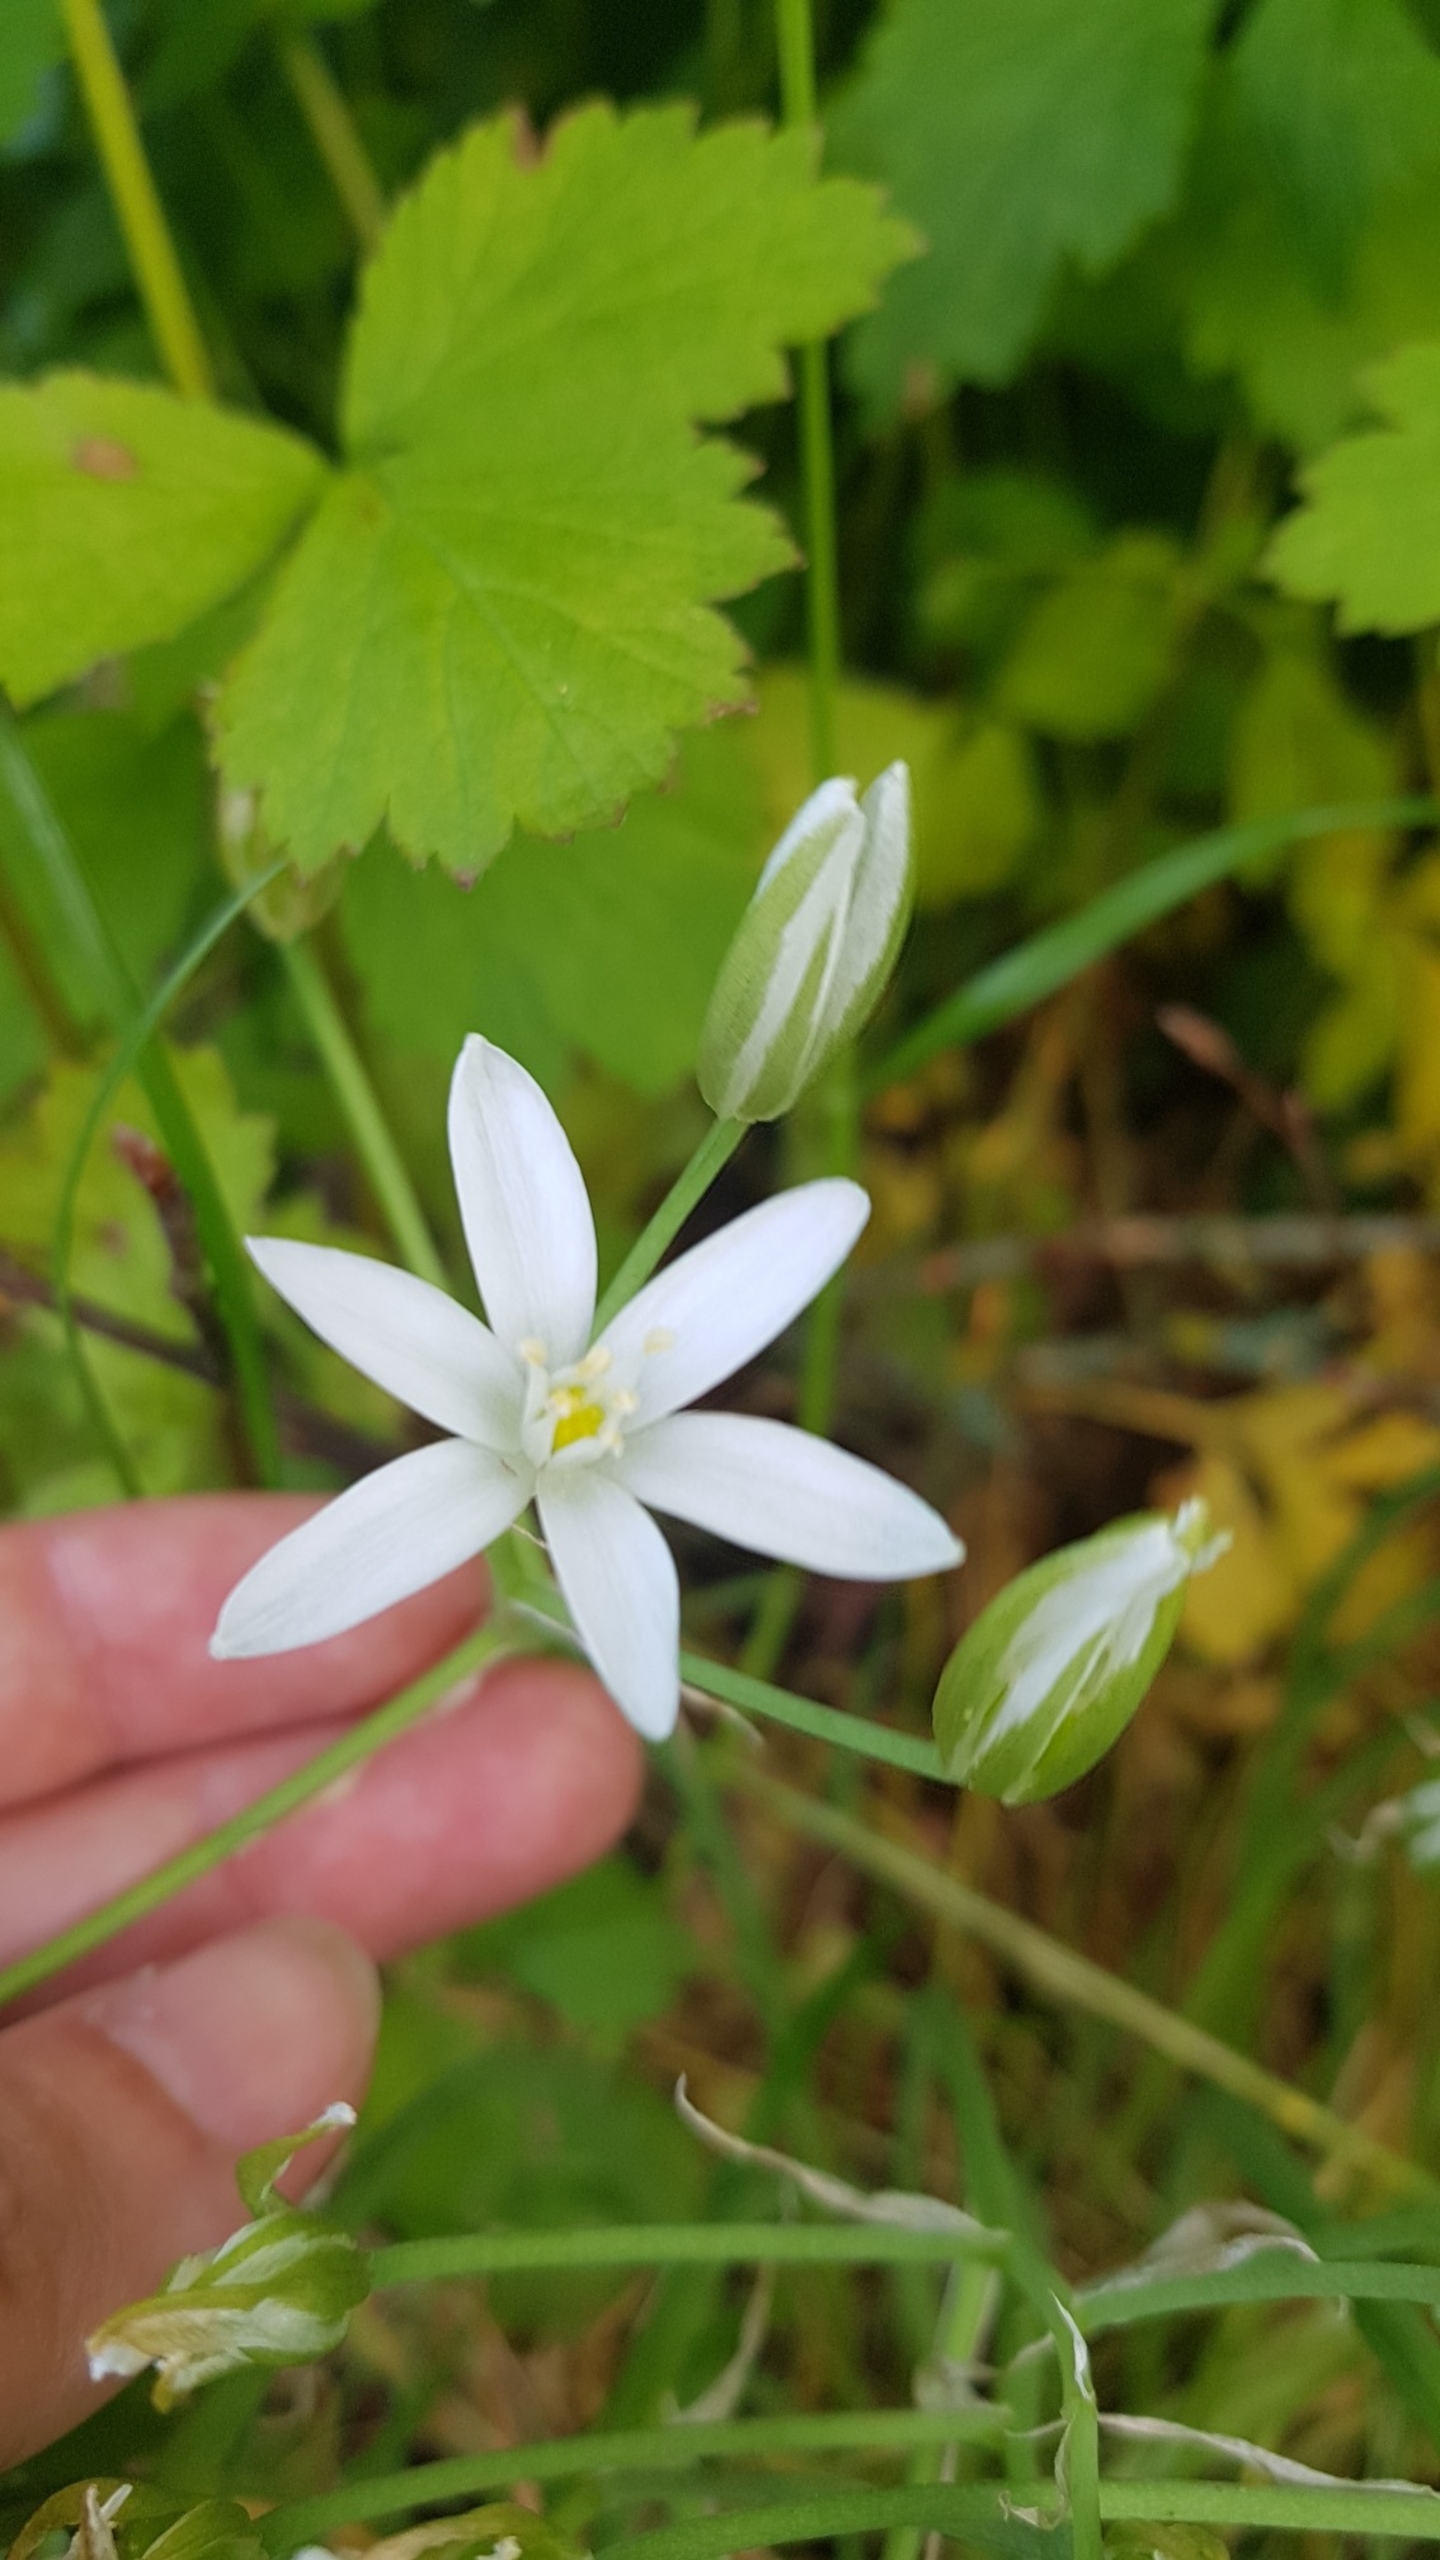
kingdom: Plantae
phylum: Tracheophyta
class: Liliopsida
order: Asparagales
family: Asparagaceae
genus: Ornithogalum
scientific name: Ornithogalum umbellatum
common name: Kost-fuglemælk
